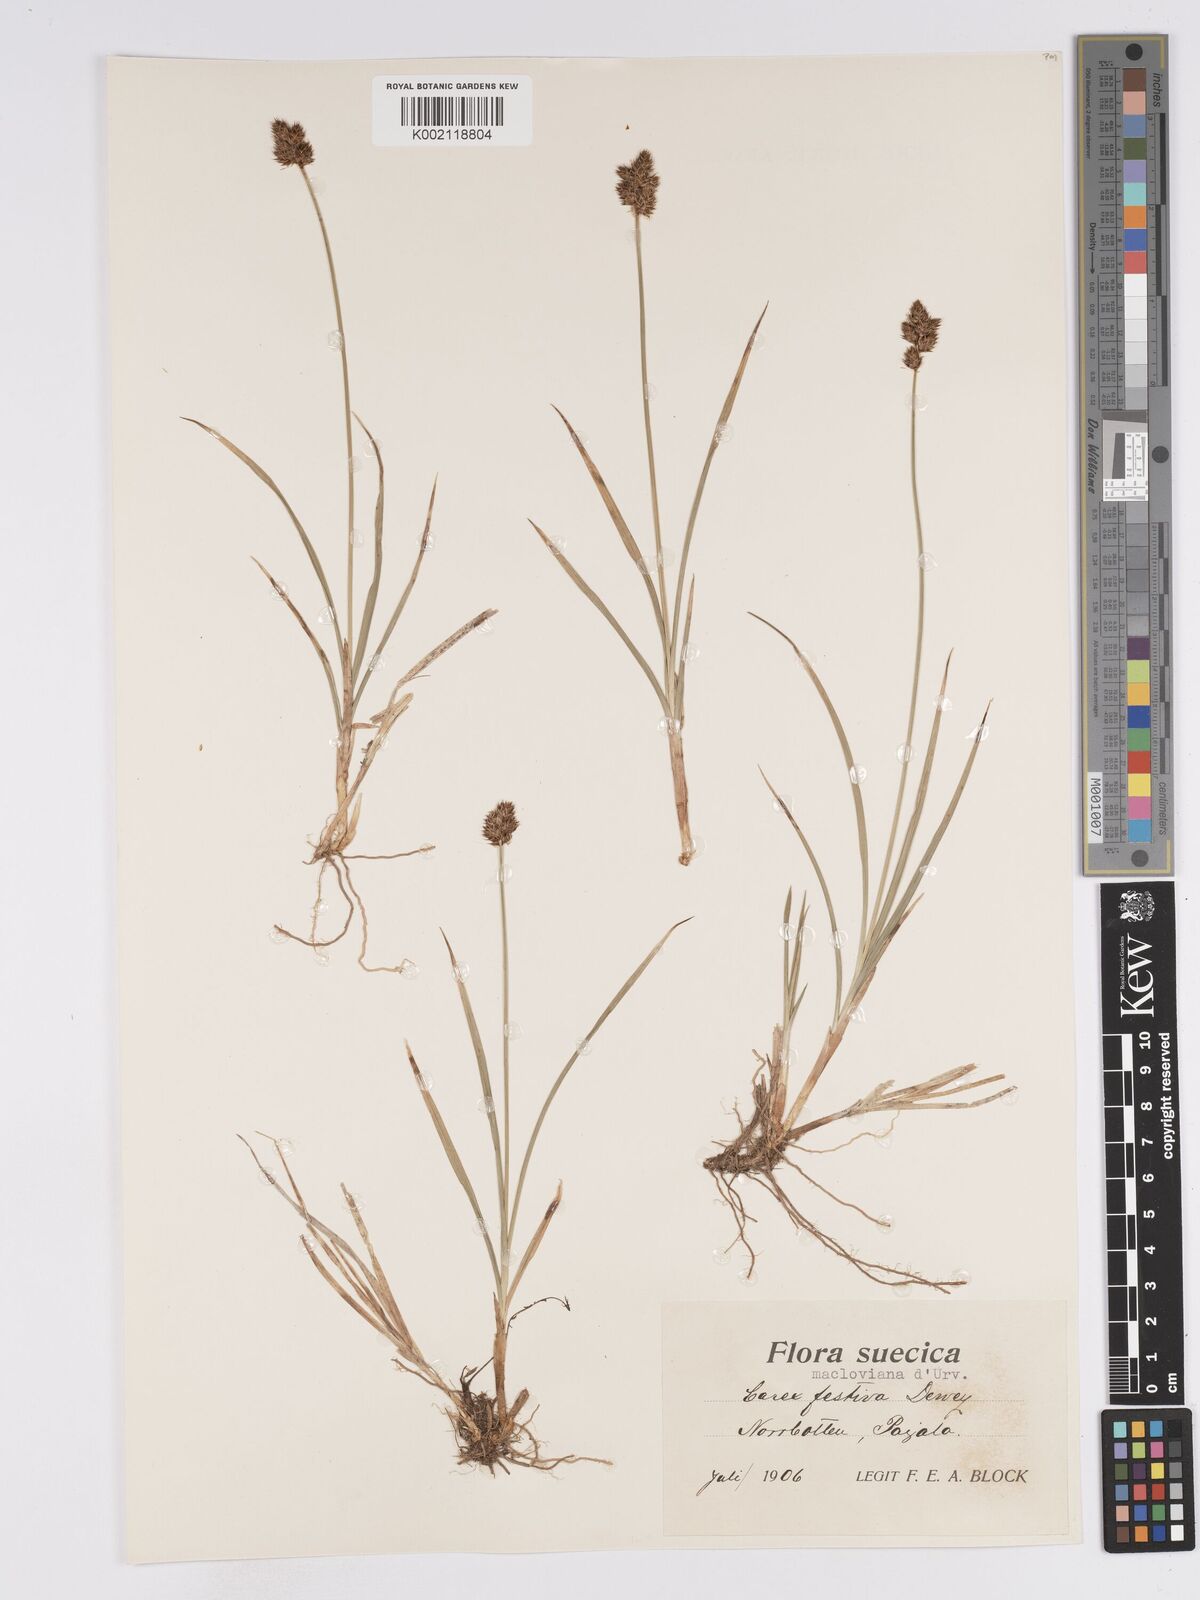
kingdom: Plantae
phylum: Tracheophyta
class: Liliopsida
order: Poales
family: Cyperaceae
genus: Carex
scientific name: Carex macloviana
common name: Falkland island sedge
